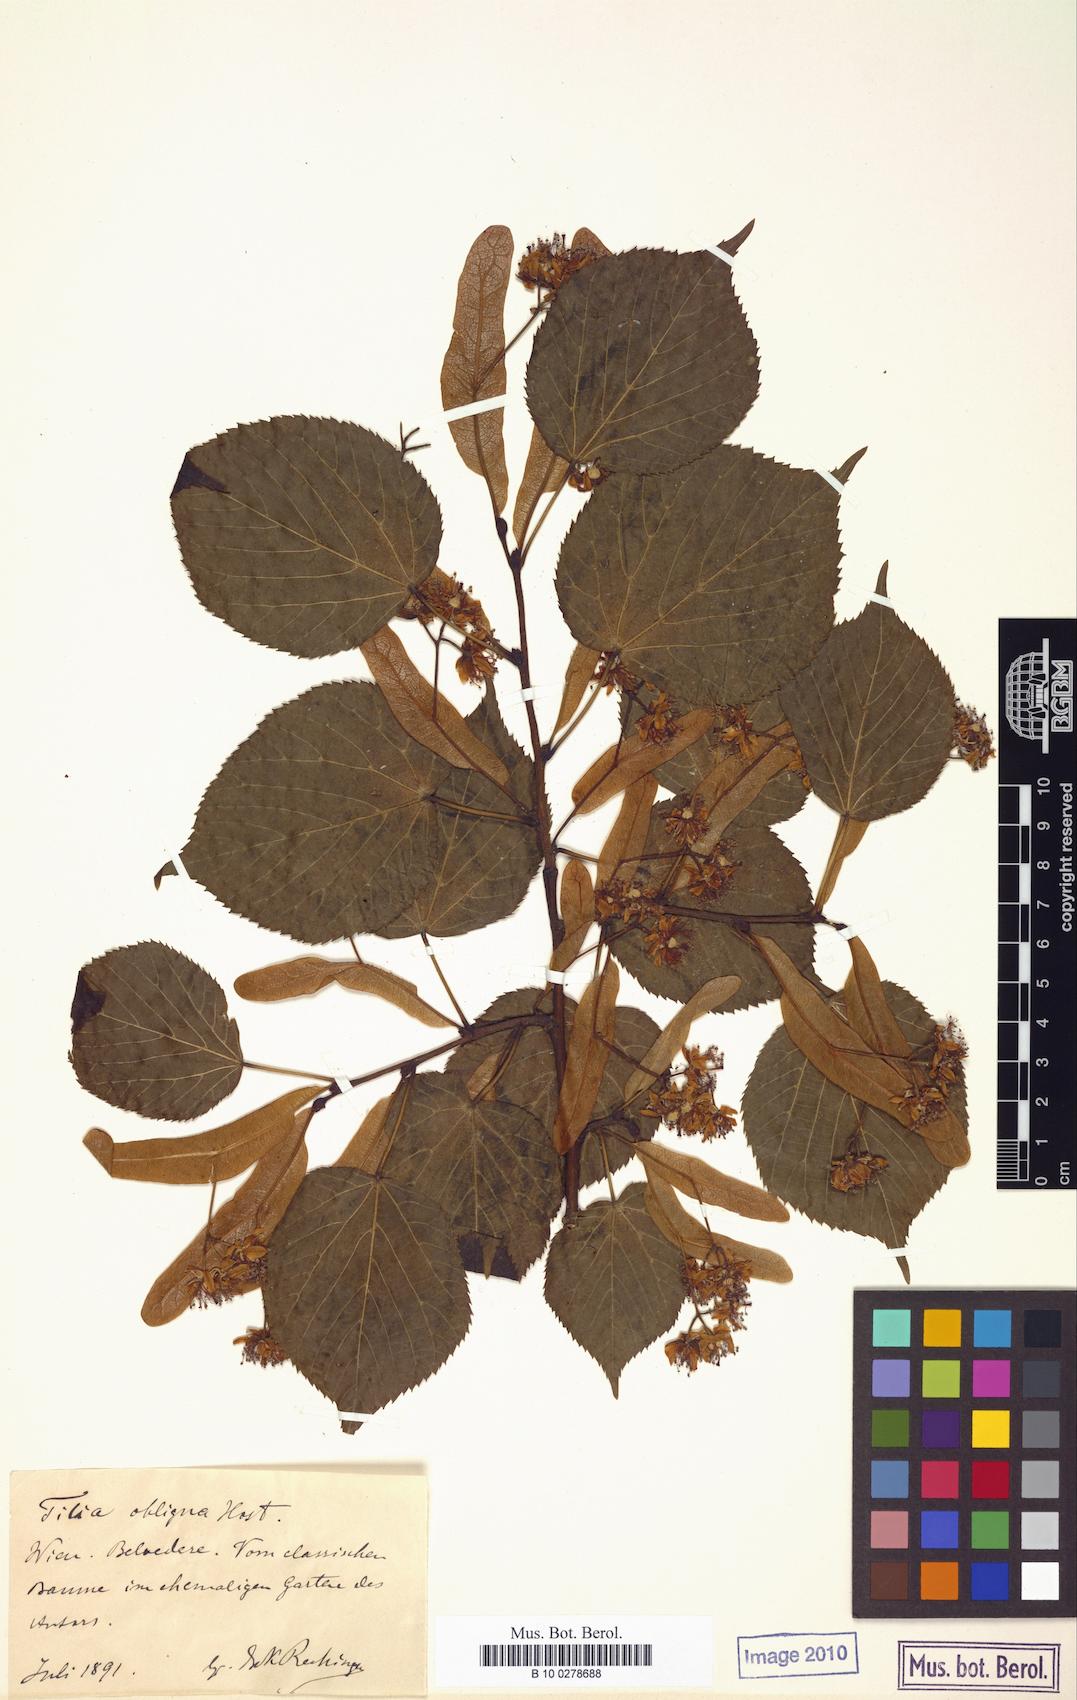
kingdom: Plantae
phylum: Tracheophyta
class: Magnoliopsida
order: Malvales
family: Malvaceae
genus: Tilia
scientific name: Tilia platyphyllos
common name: Large-leaved lime
